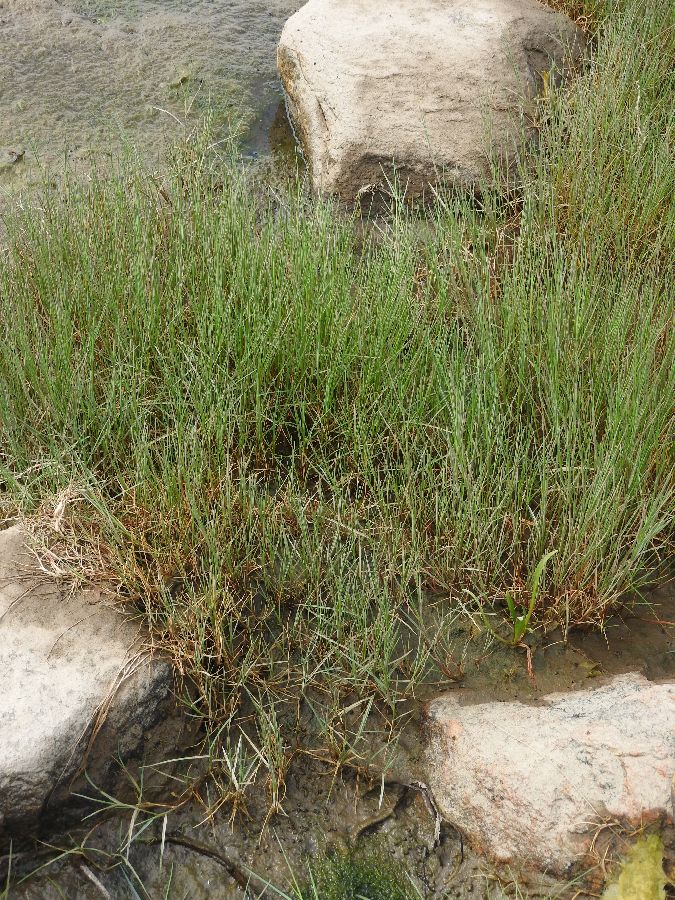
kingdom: Plantae
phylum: Tracheophyta
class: Liliopsida
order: Poales
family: Poaceae
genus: Puccinellia
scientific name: Puccinellia maritima
